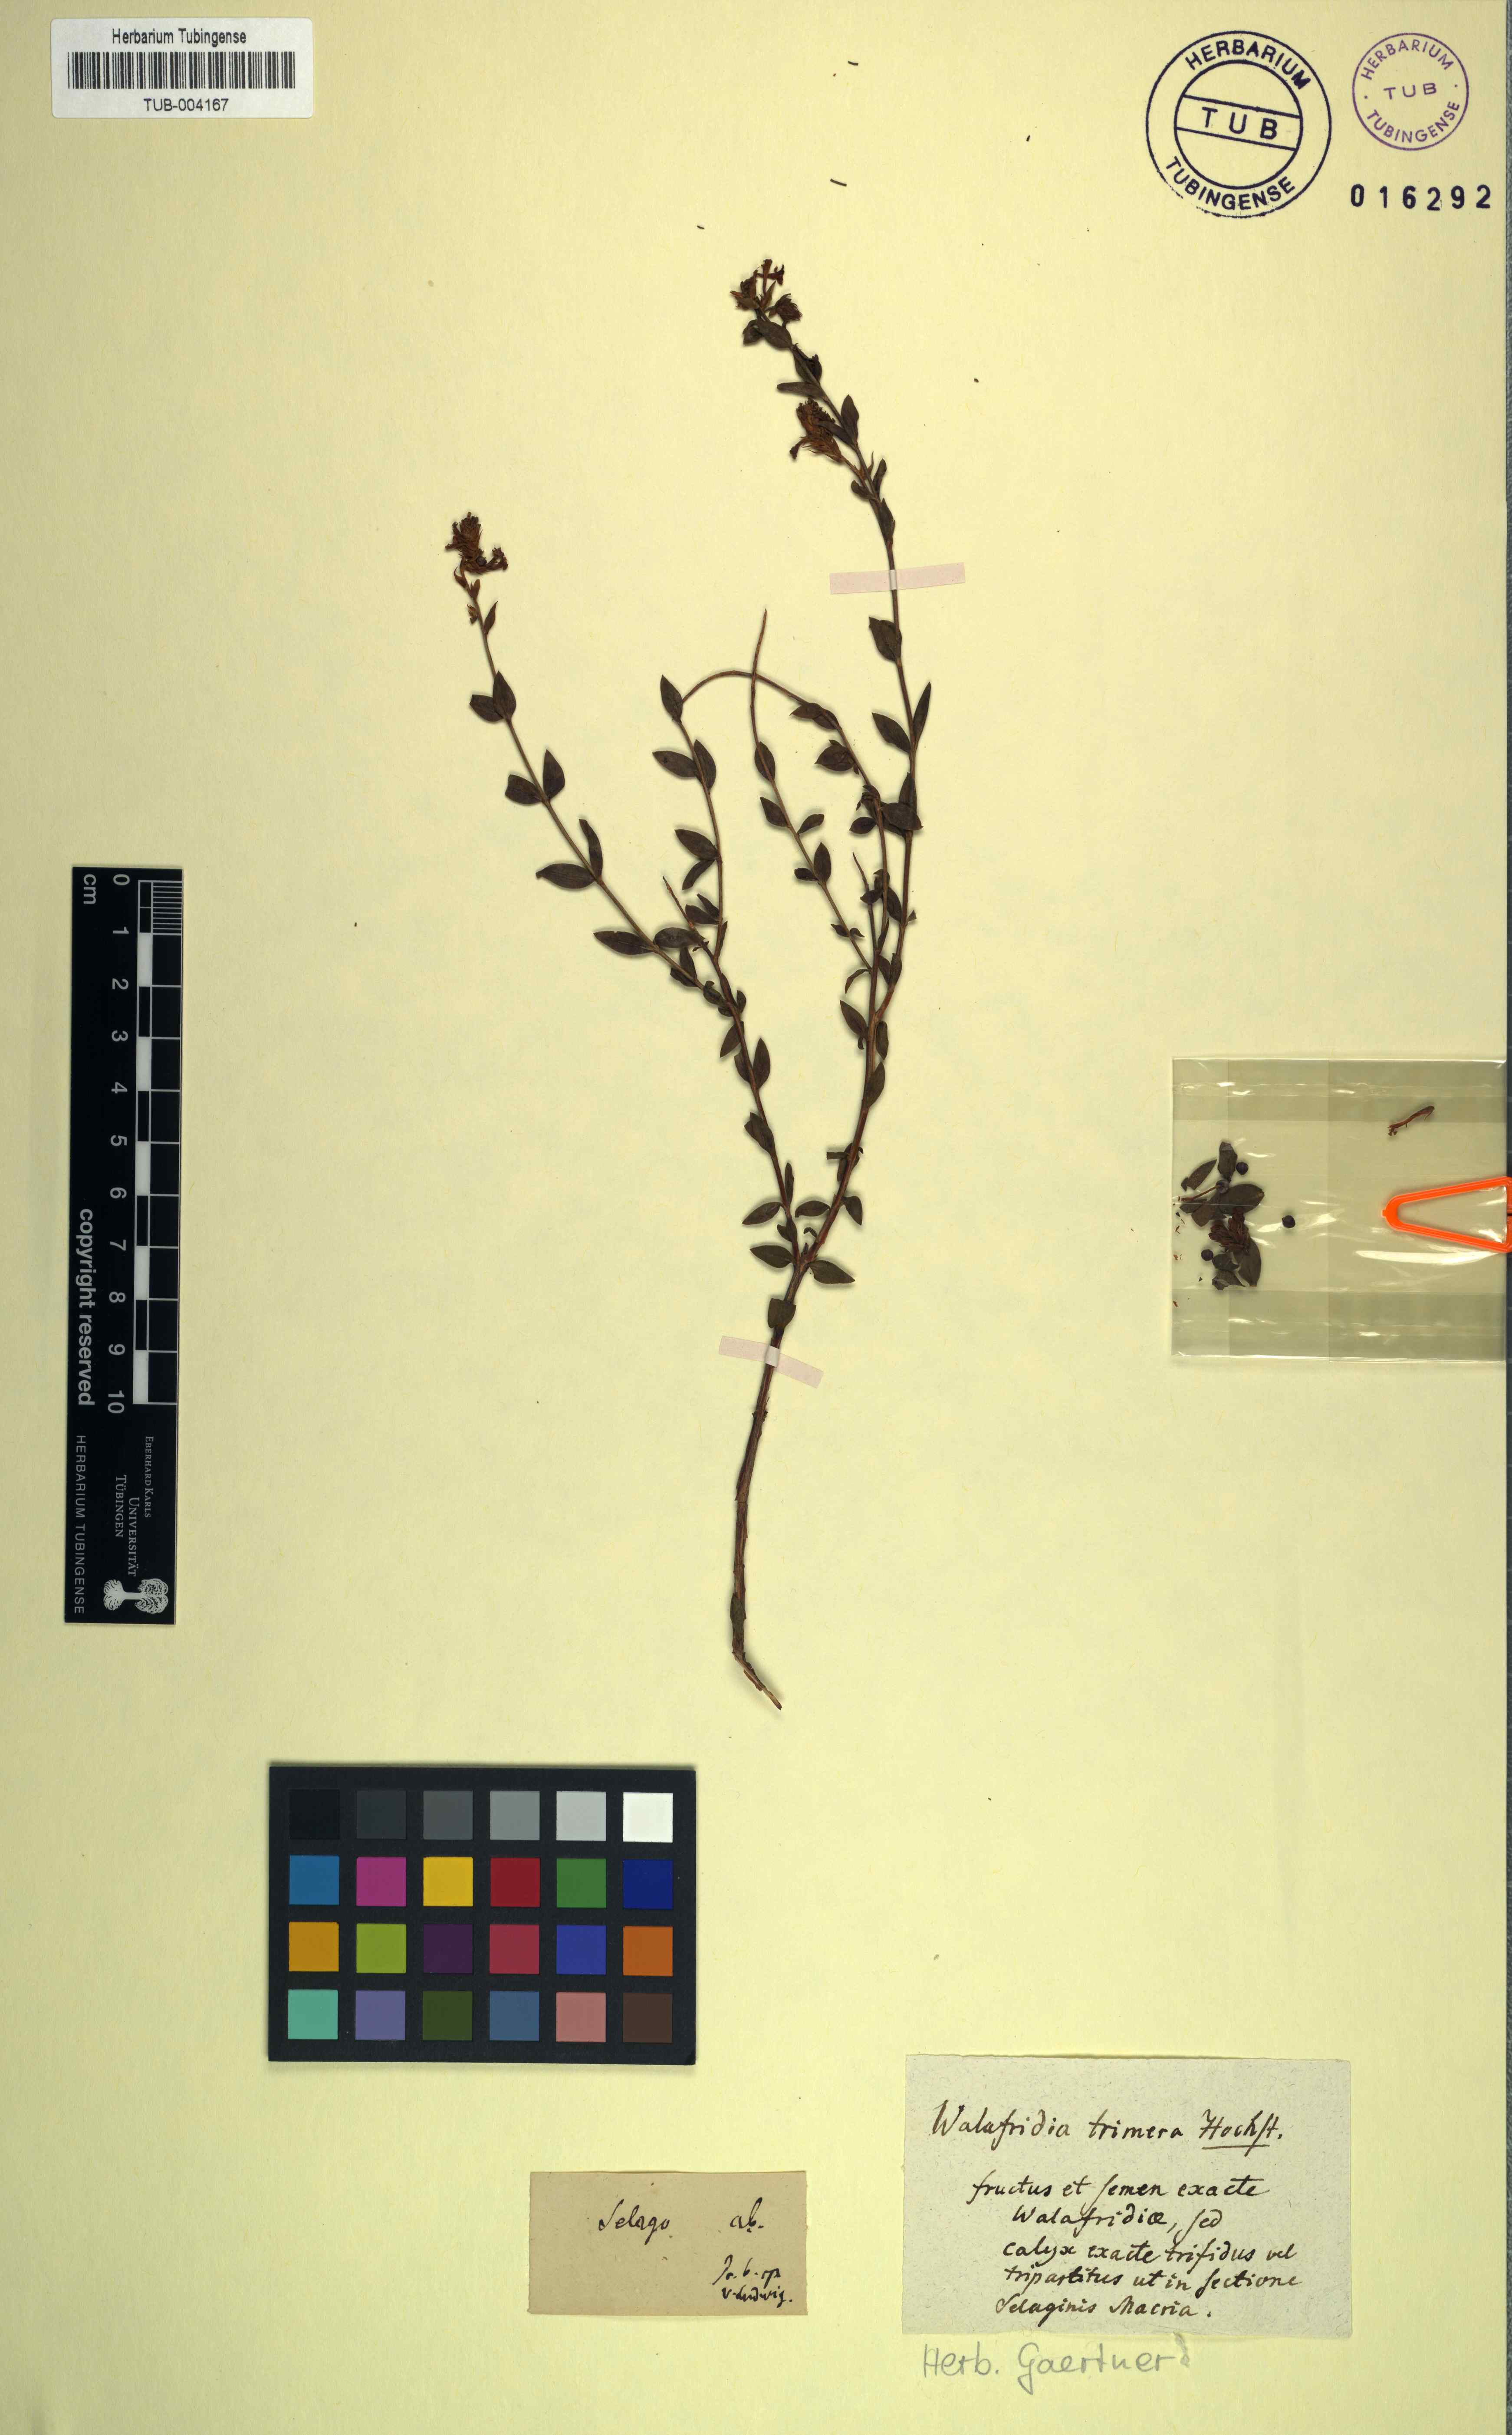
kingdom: Plantae
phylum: Tracheophyta
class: Magnoliopsida
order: Lamiales
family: Scrophulariaceae
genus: Selago
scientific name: Selago myrtifolia
